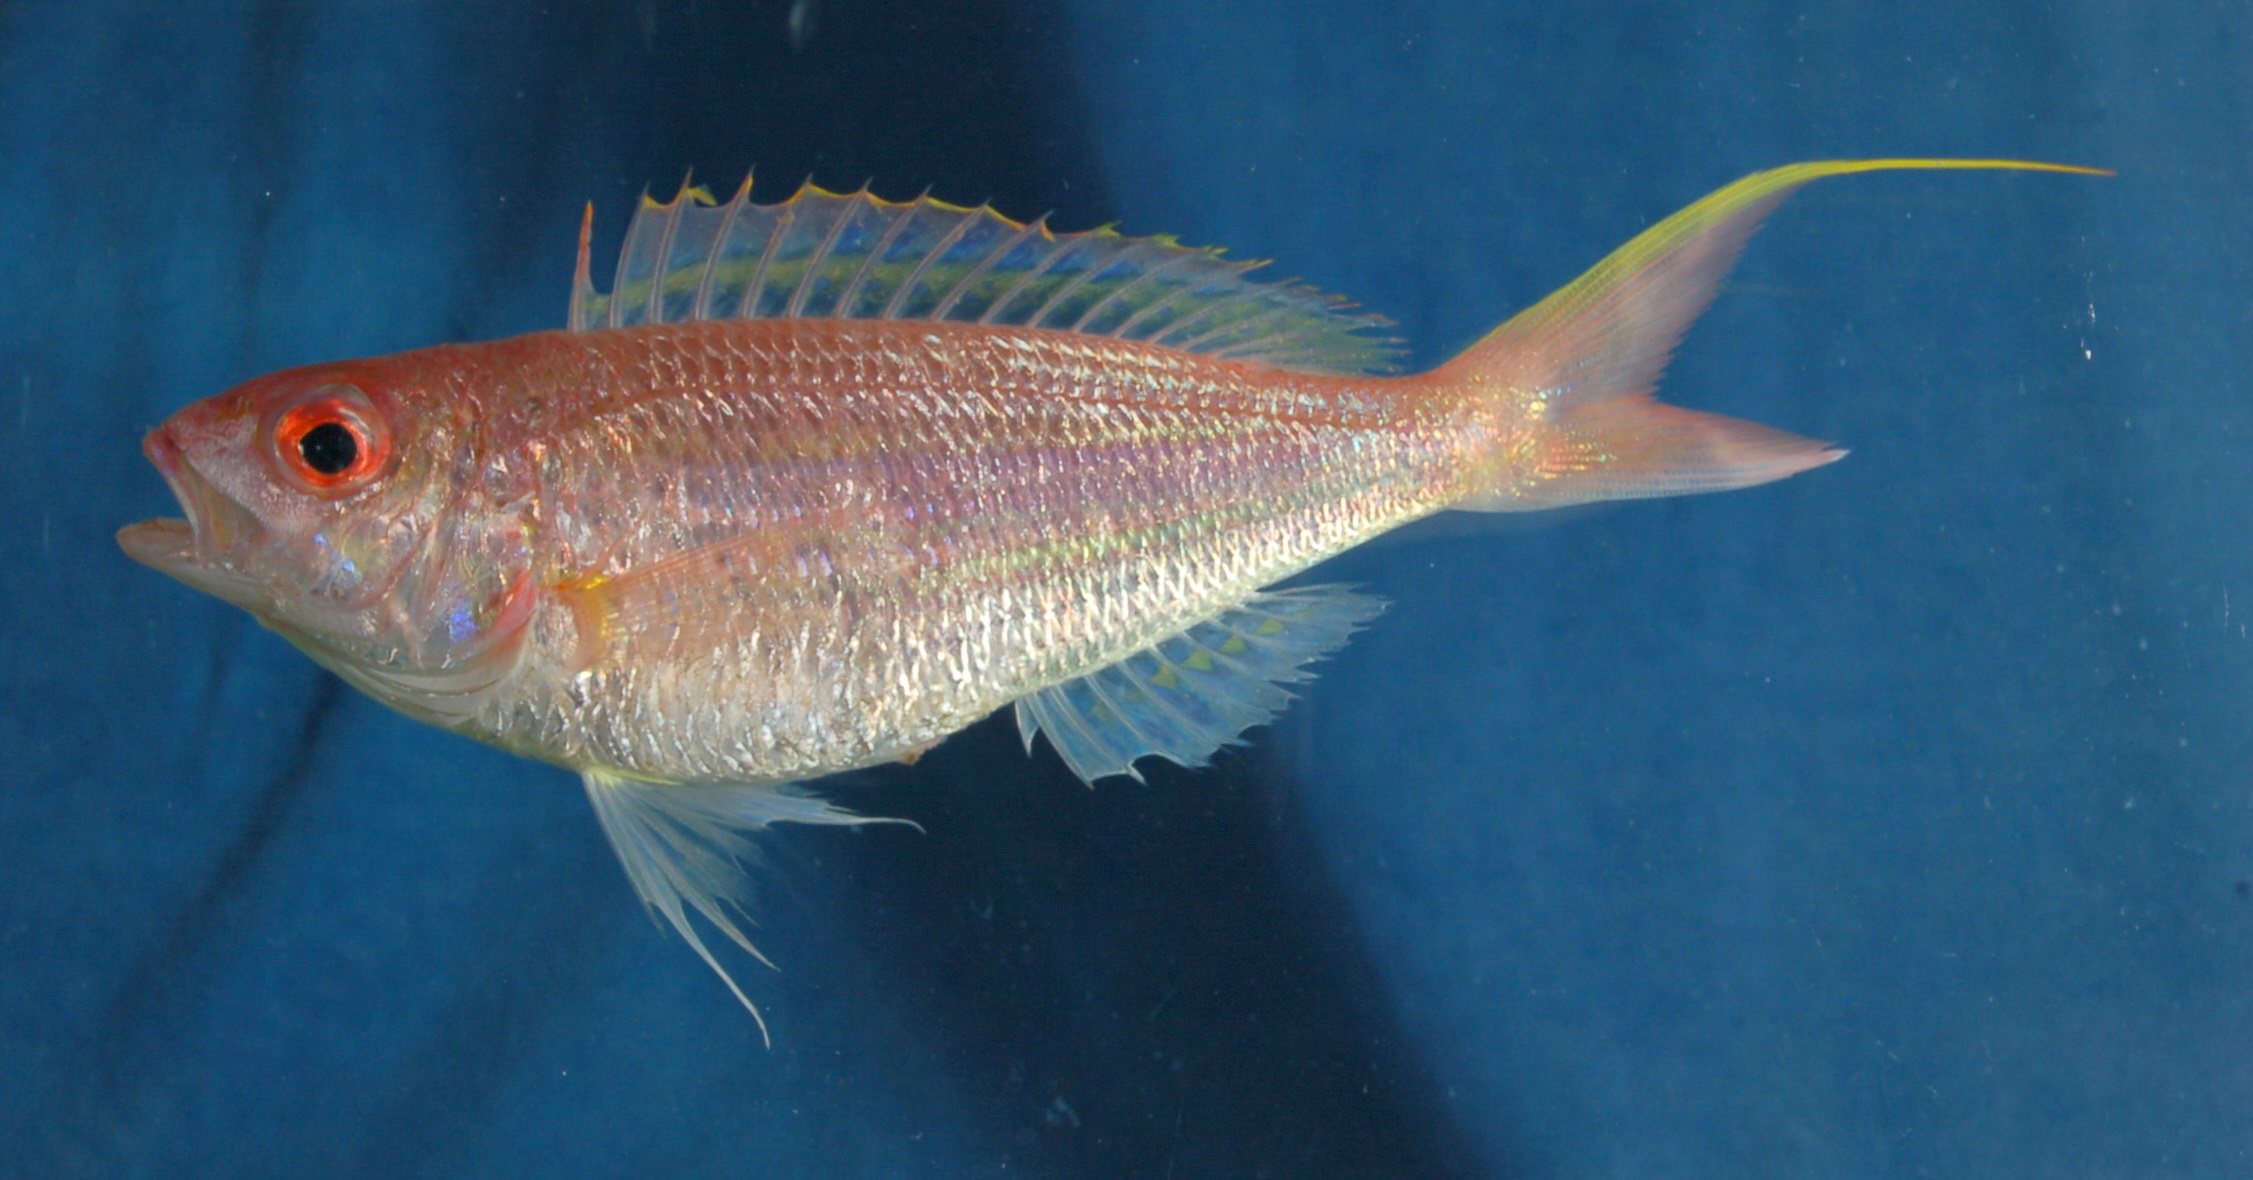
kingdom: Animalia
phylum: Chordata
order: Perciformes
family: Nemipteridae
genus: Nemipterus
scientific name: Nemipterus elaine
